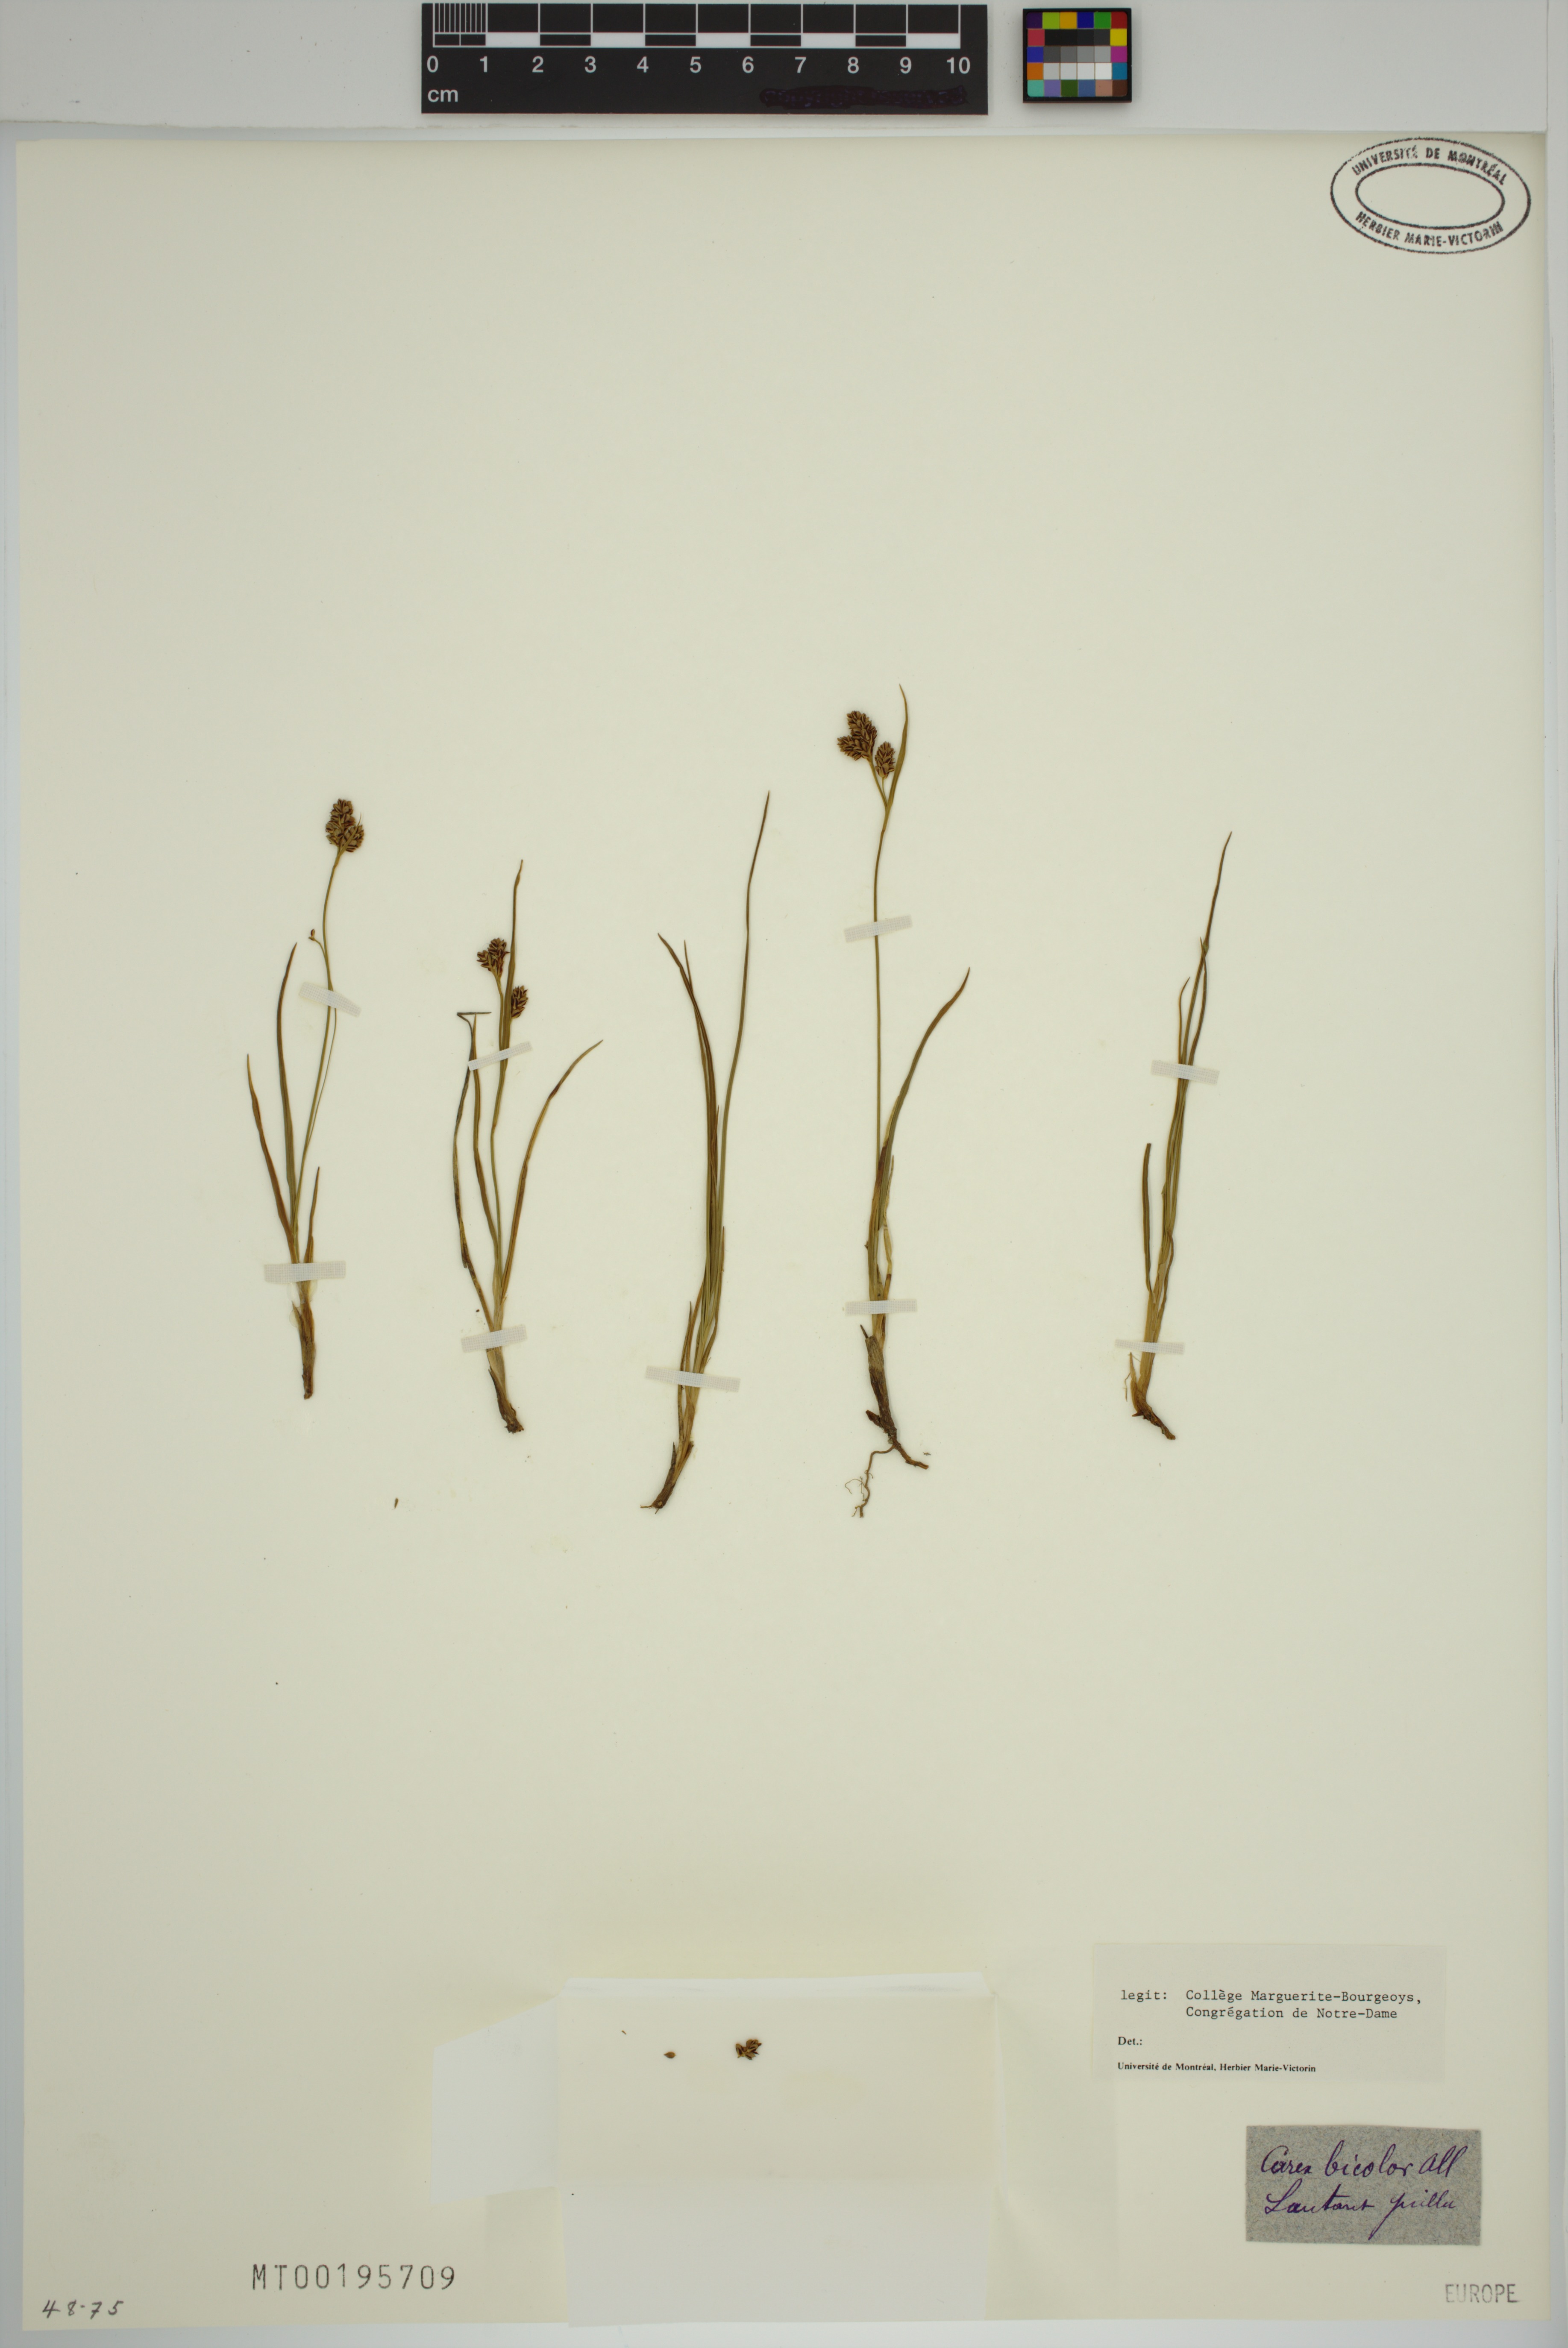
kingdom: Plantae
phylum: Tracheophyta
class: Liliopsida
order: Poales
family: Cyperaceae
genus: Carex
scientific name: Carex bicolor
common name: Bicoloured sedge
